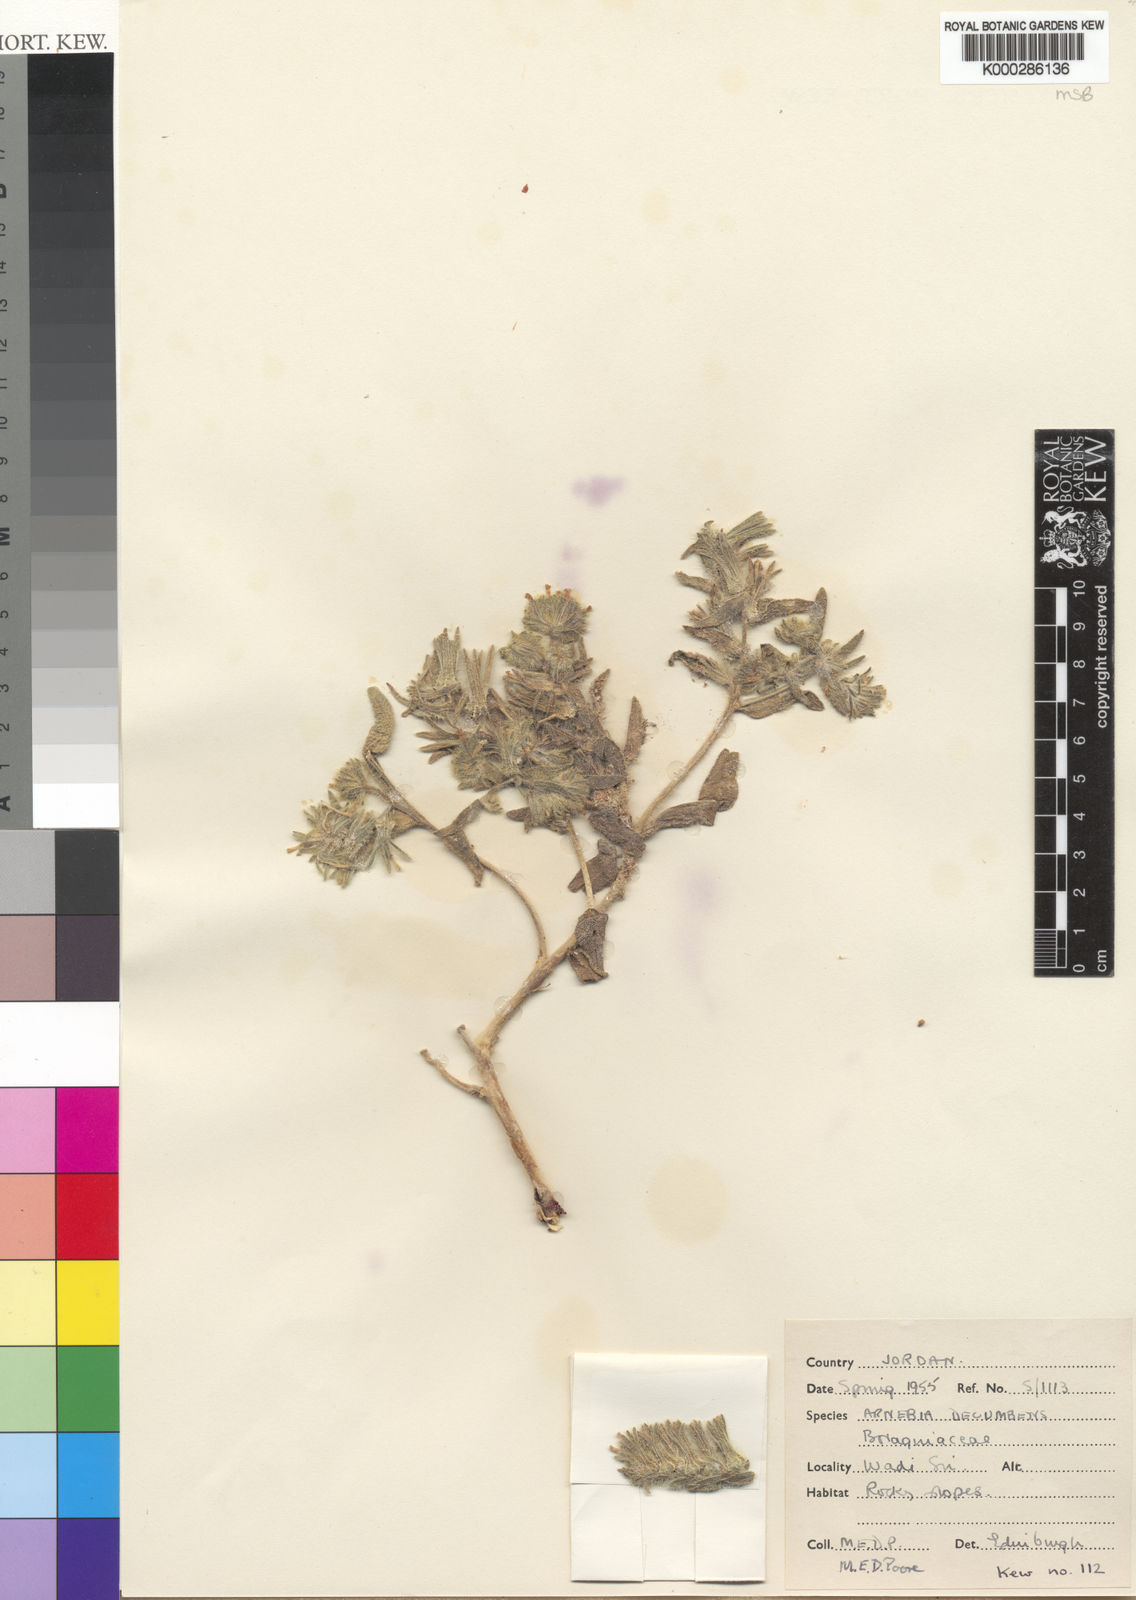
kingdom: Plantae
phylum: Tracheophyta
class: Magnoliopsida
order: Boraginales
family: Boraginaceae
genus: Arnebia
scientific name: Arnebia decumbens
